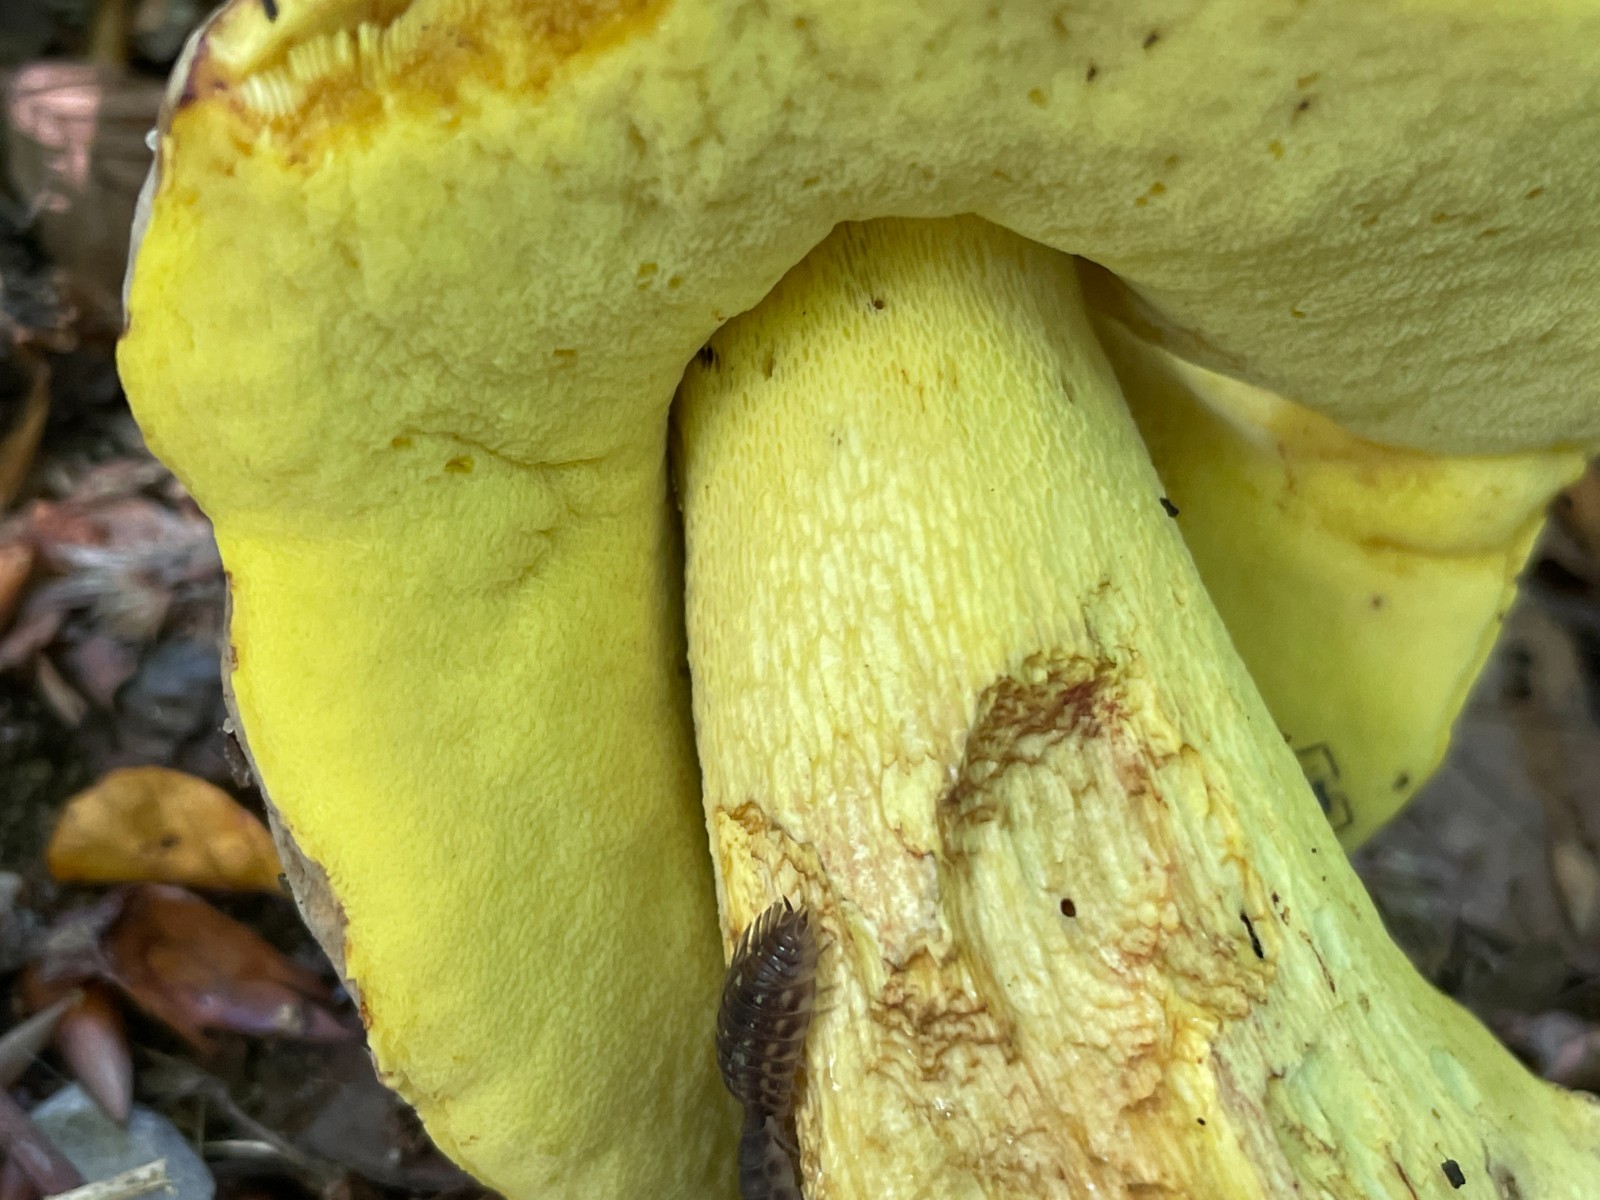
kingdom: Fungi
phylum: Basidiomycota
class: Agaricomycetes
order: Boletales
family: Boletaceae
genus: Butyriboletus
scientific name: Butyriboletus fechtneri
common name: sølvskinnende rørhat
